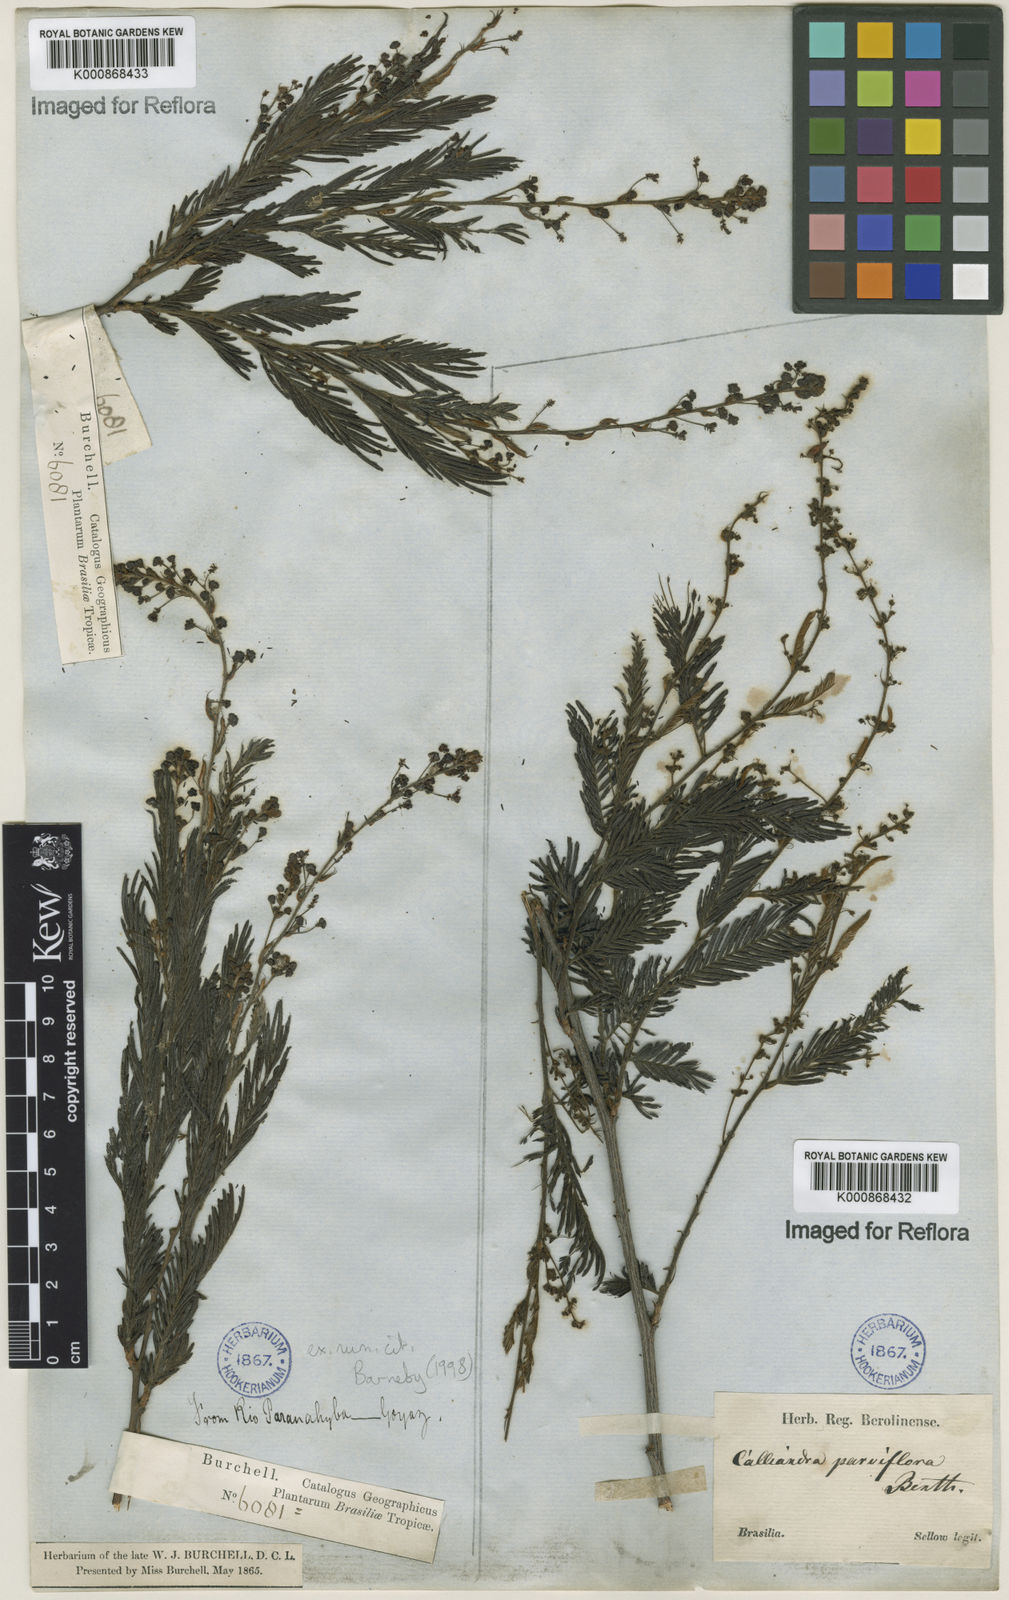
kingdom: Plantae
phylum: Tracheophyta
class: Magnoliopsida
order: Fabales
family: Fabaceae
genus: Calliandra
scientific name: Calliandra parviflora
